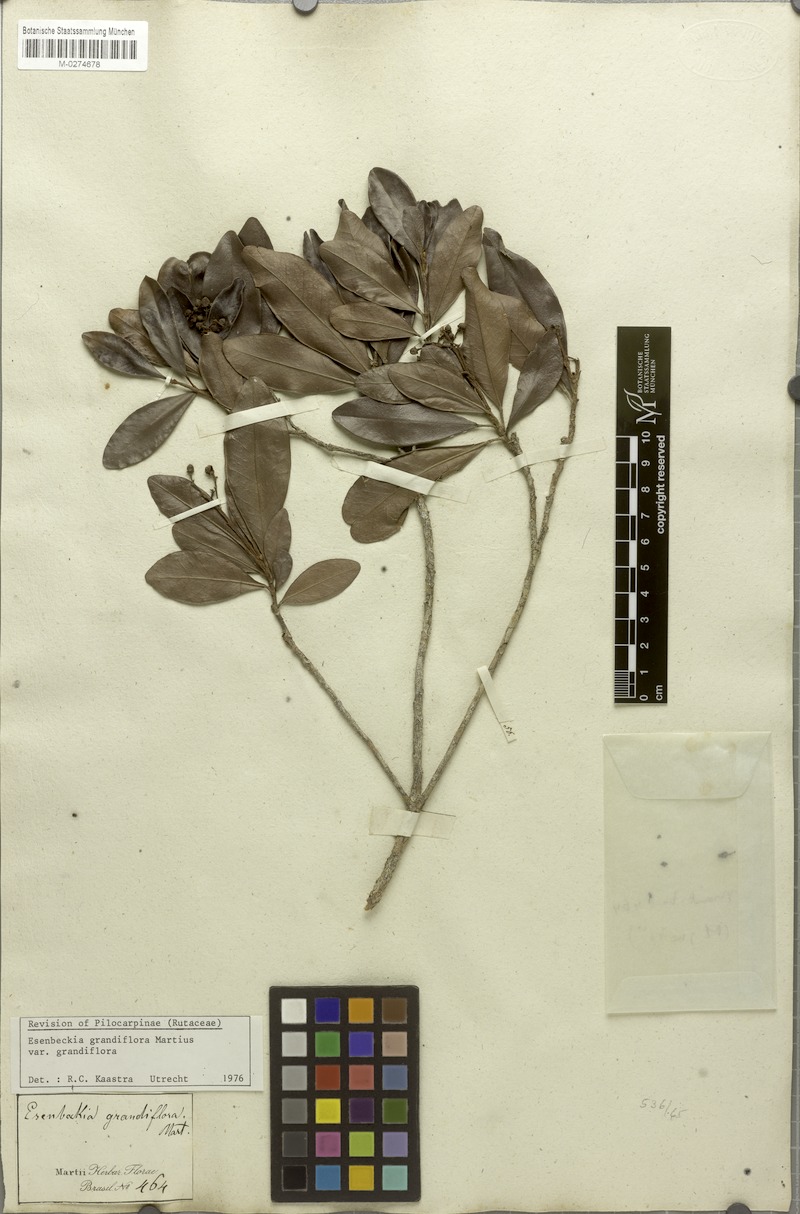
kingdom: Plantae
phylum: Tracheophyta
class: Magnoliopsida
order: Sapindales
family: Rutaceae
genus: Esenbeckia
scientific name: Esenbeckia grandiflora
